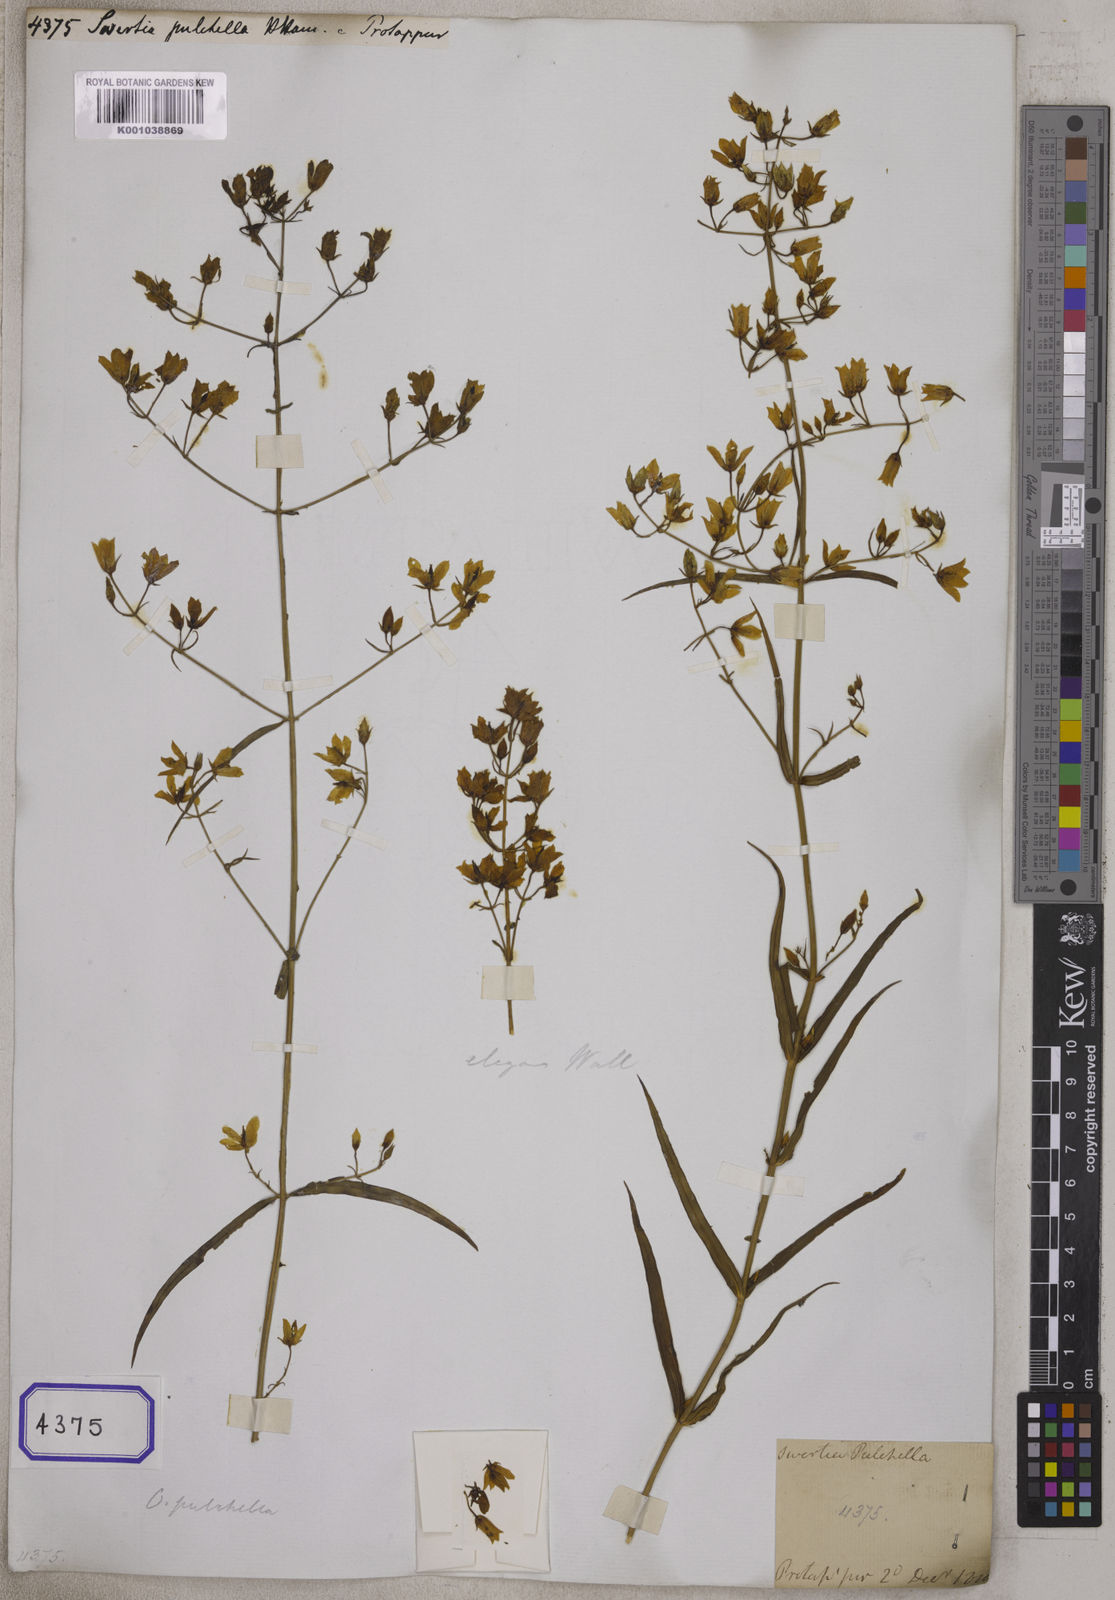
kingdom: Plantae
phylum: Tracheophyta
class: Magnoliopsida
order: Gentianales
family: Gentianaceae
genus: Swertia
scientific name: Swertia
